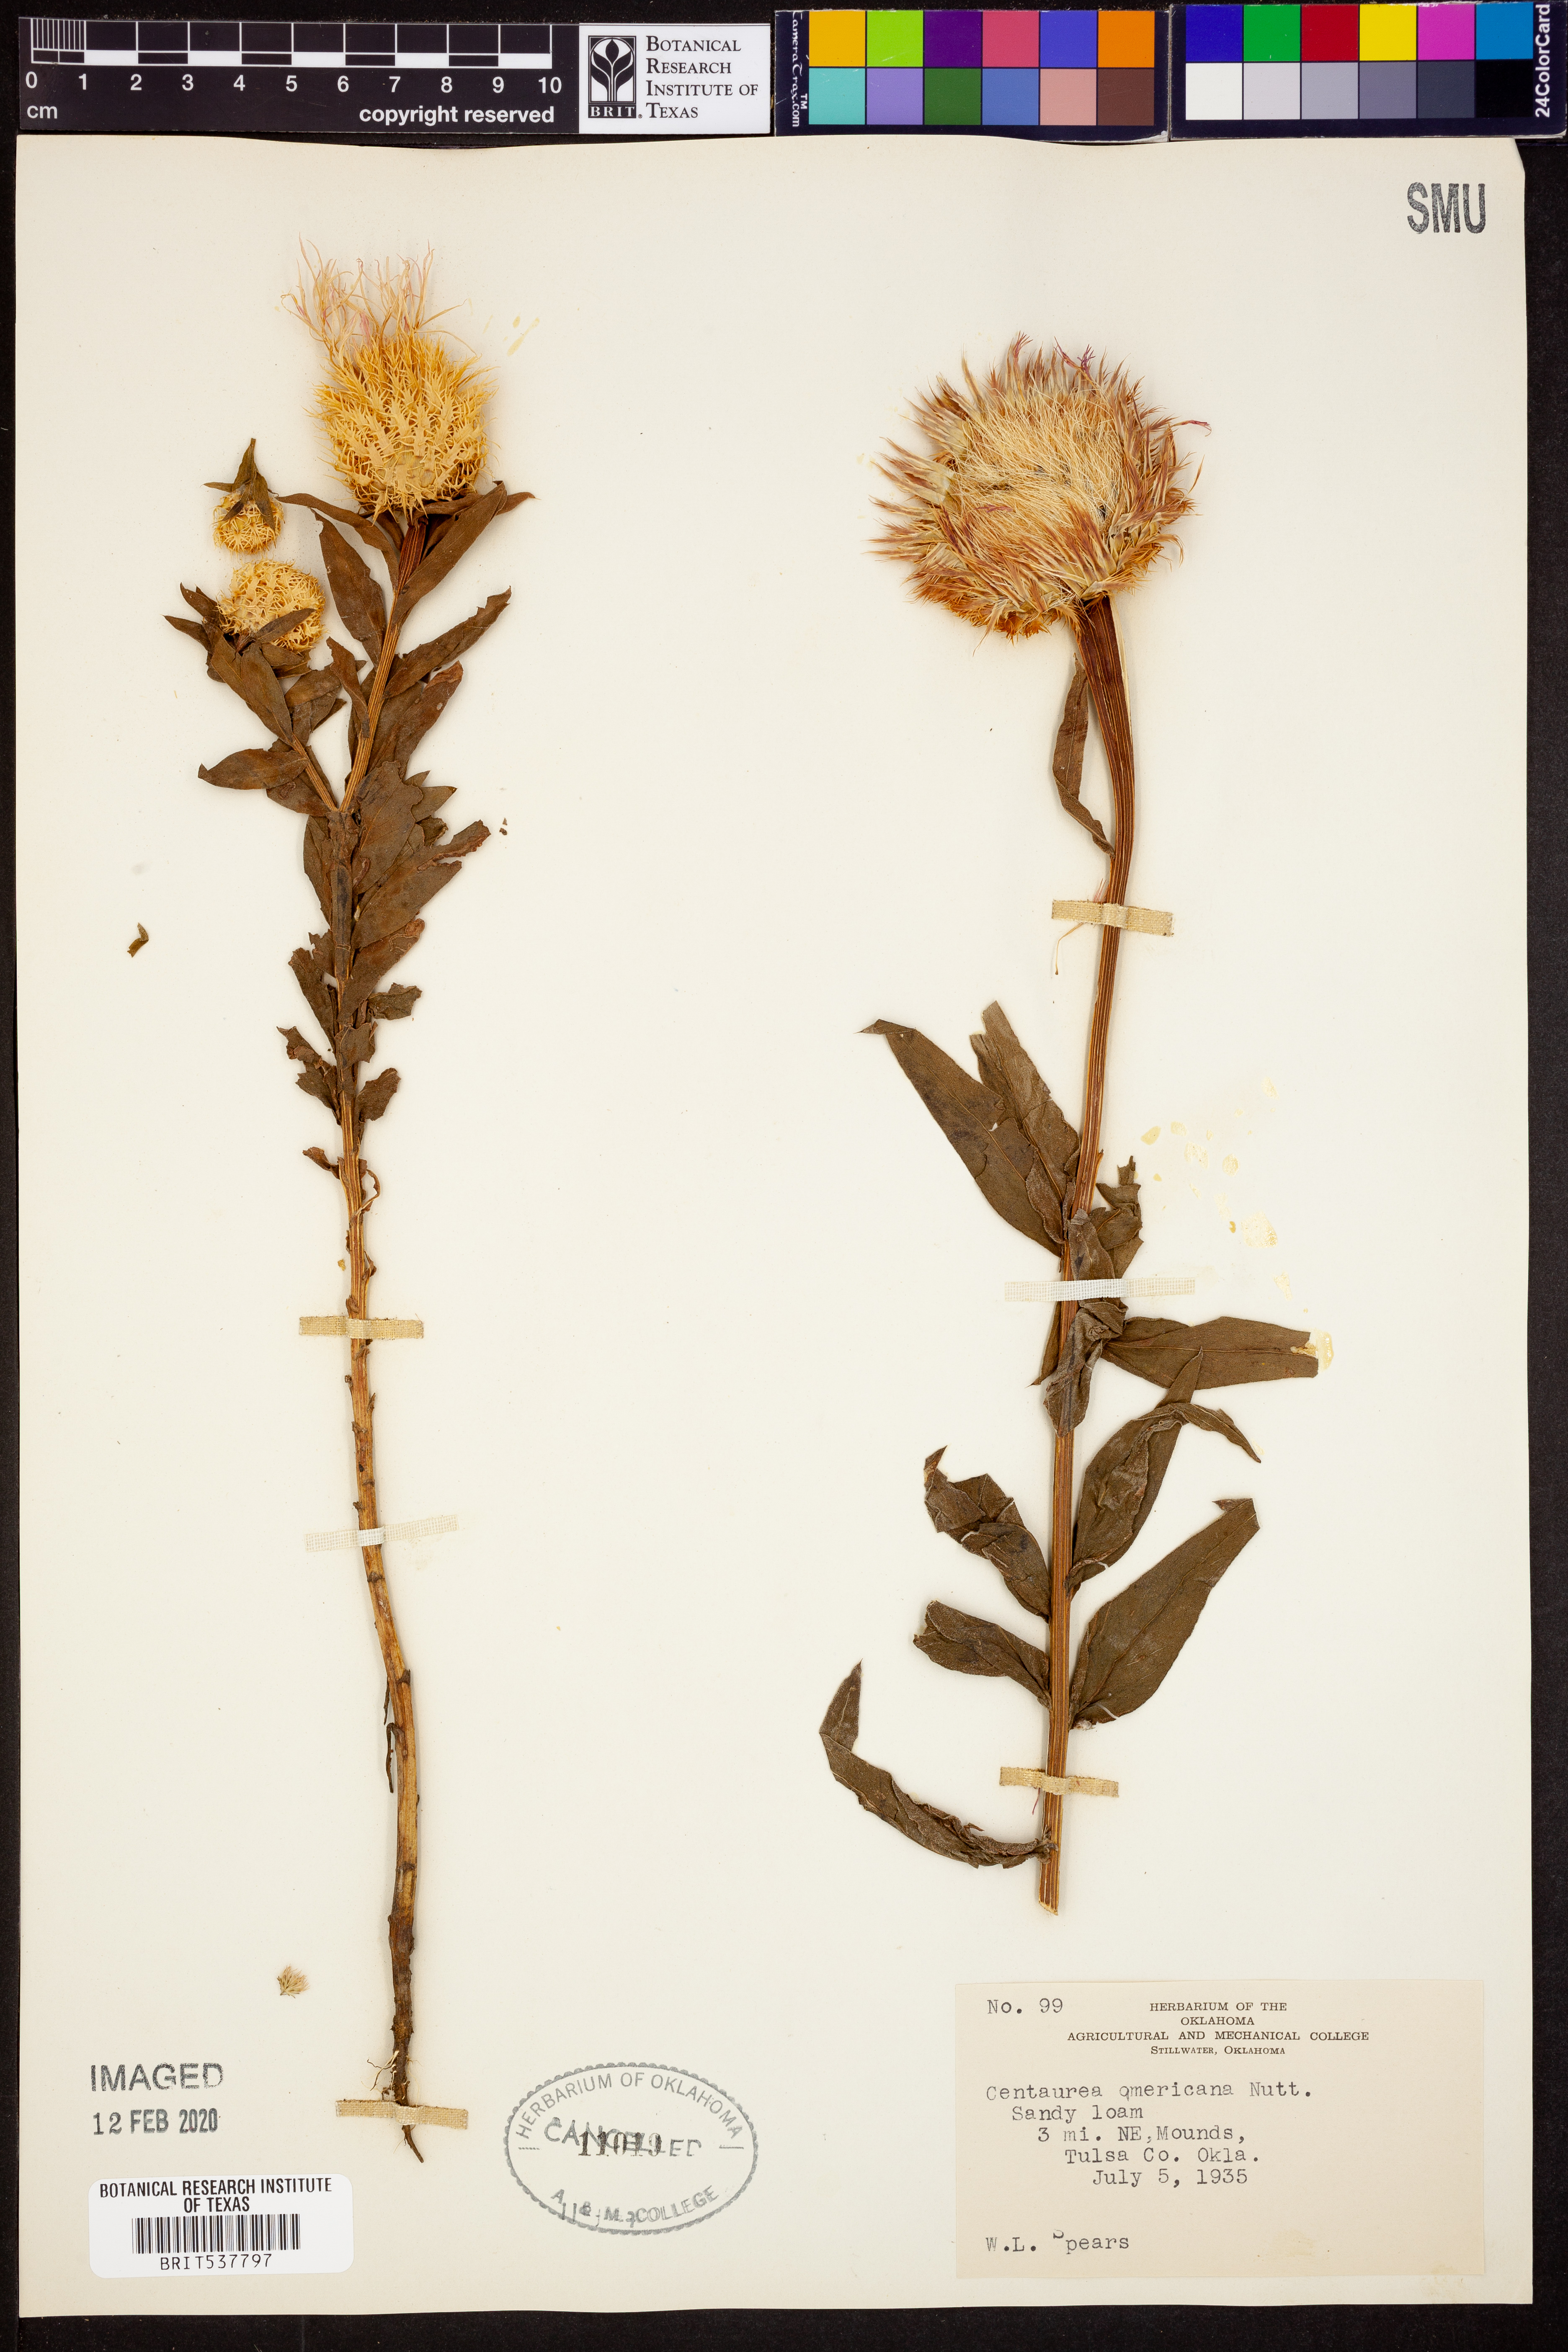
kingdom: Plantae
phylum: Tracheophyta
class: Magnoliopsida
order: Asterales
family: Asteraceae
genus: Plectocephalus
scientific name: Plectocephalus americanus
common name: American basket-flower
